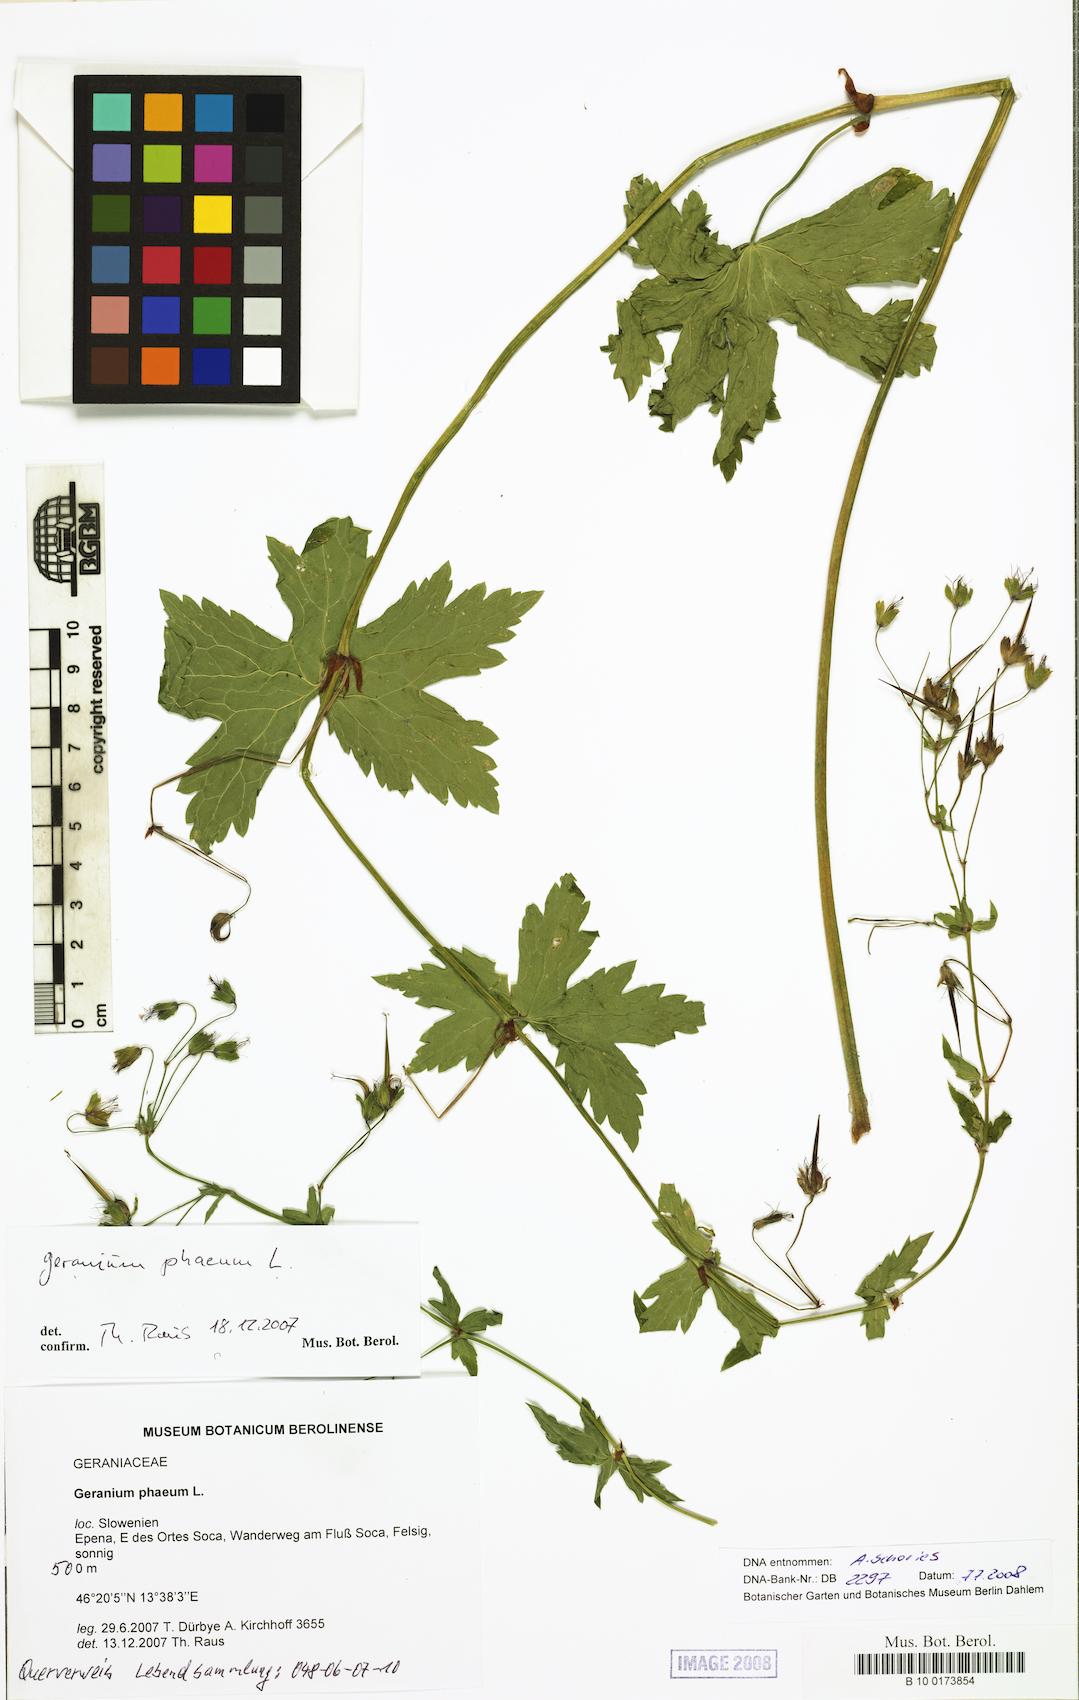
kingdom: Plantae
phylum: Tracheophyta
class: Magnoliopsida
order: Geraniales
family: Geraniaceae
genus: Geranium
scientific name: Geranium phaeum
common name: Dusky crane's-bill
